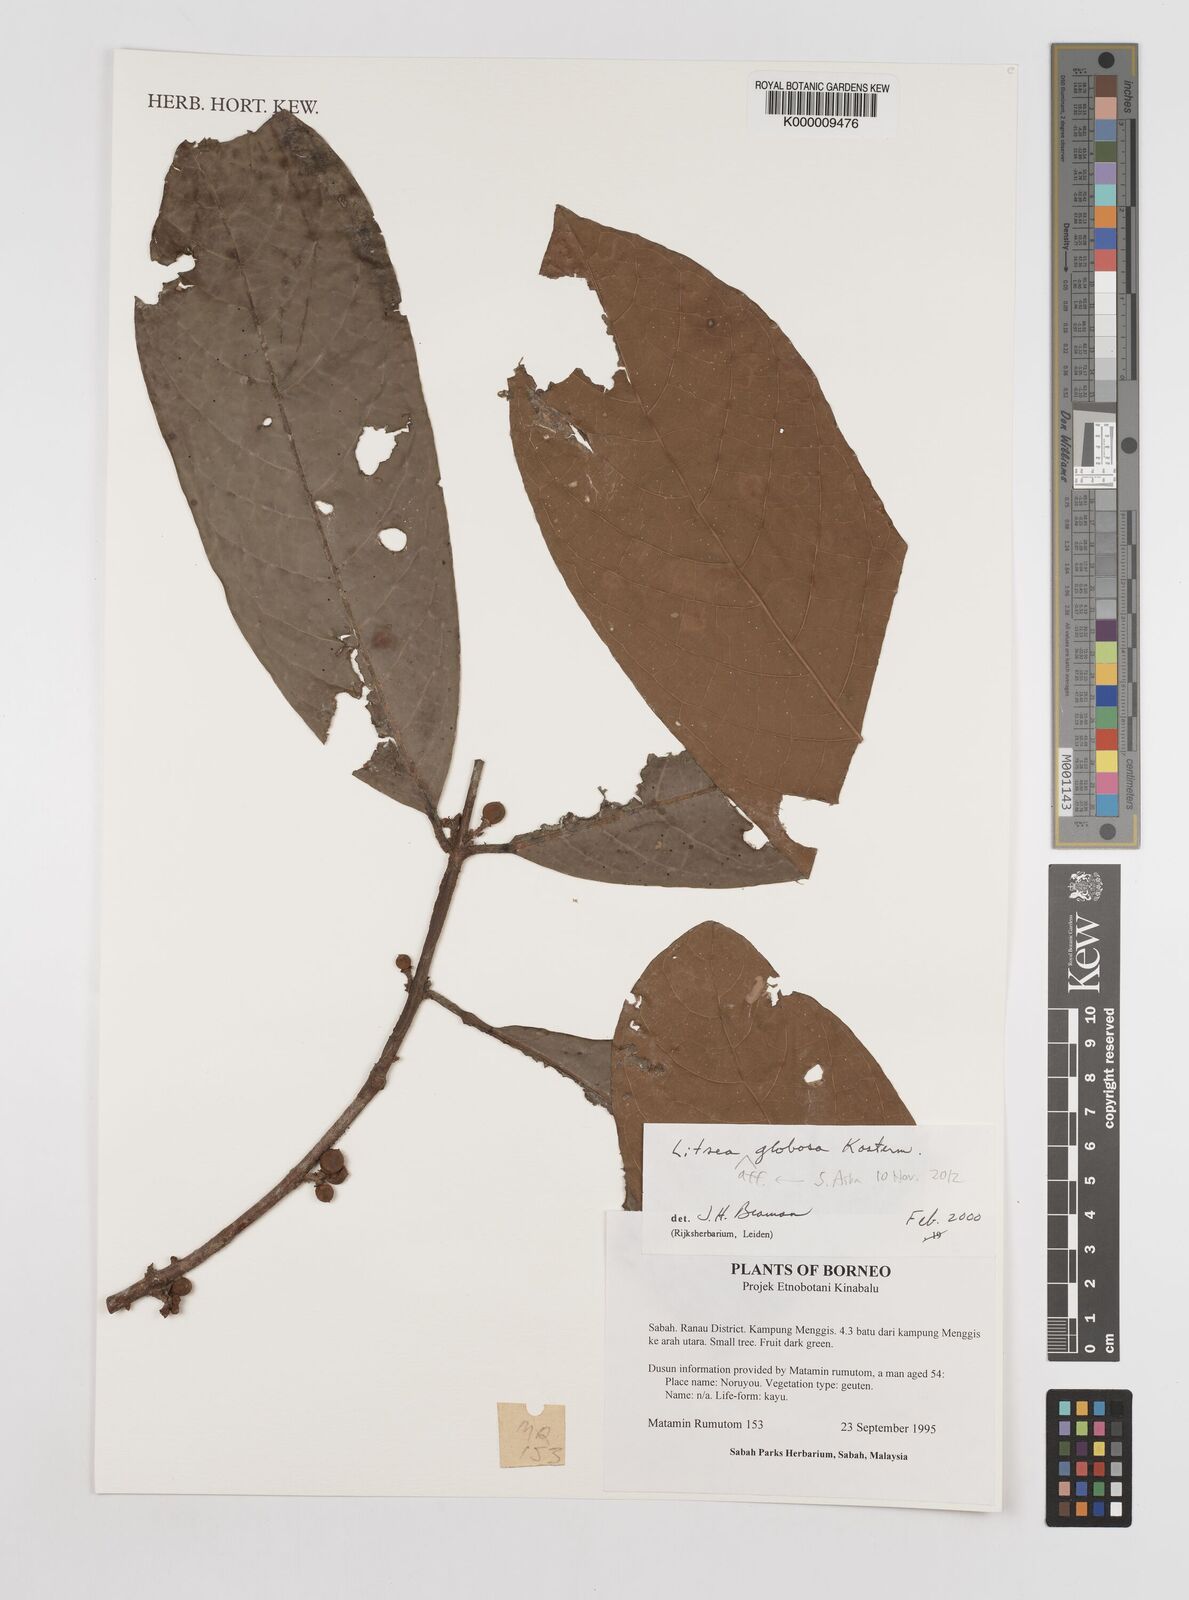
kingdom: Plantae
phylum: Tracheophyta
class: Magnoliopsida
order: Laurales
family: Lauraceae
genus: Litsea
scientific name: Litsea globosa
